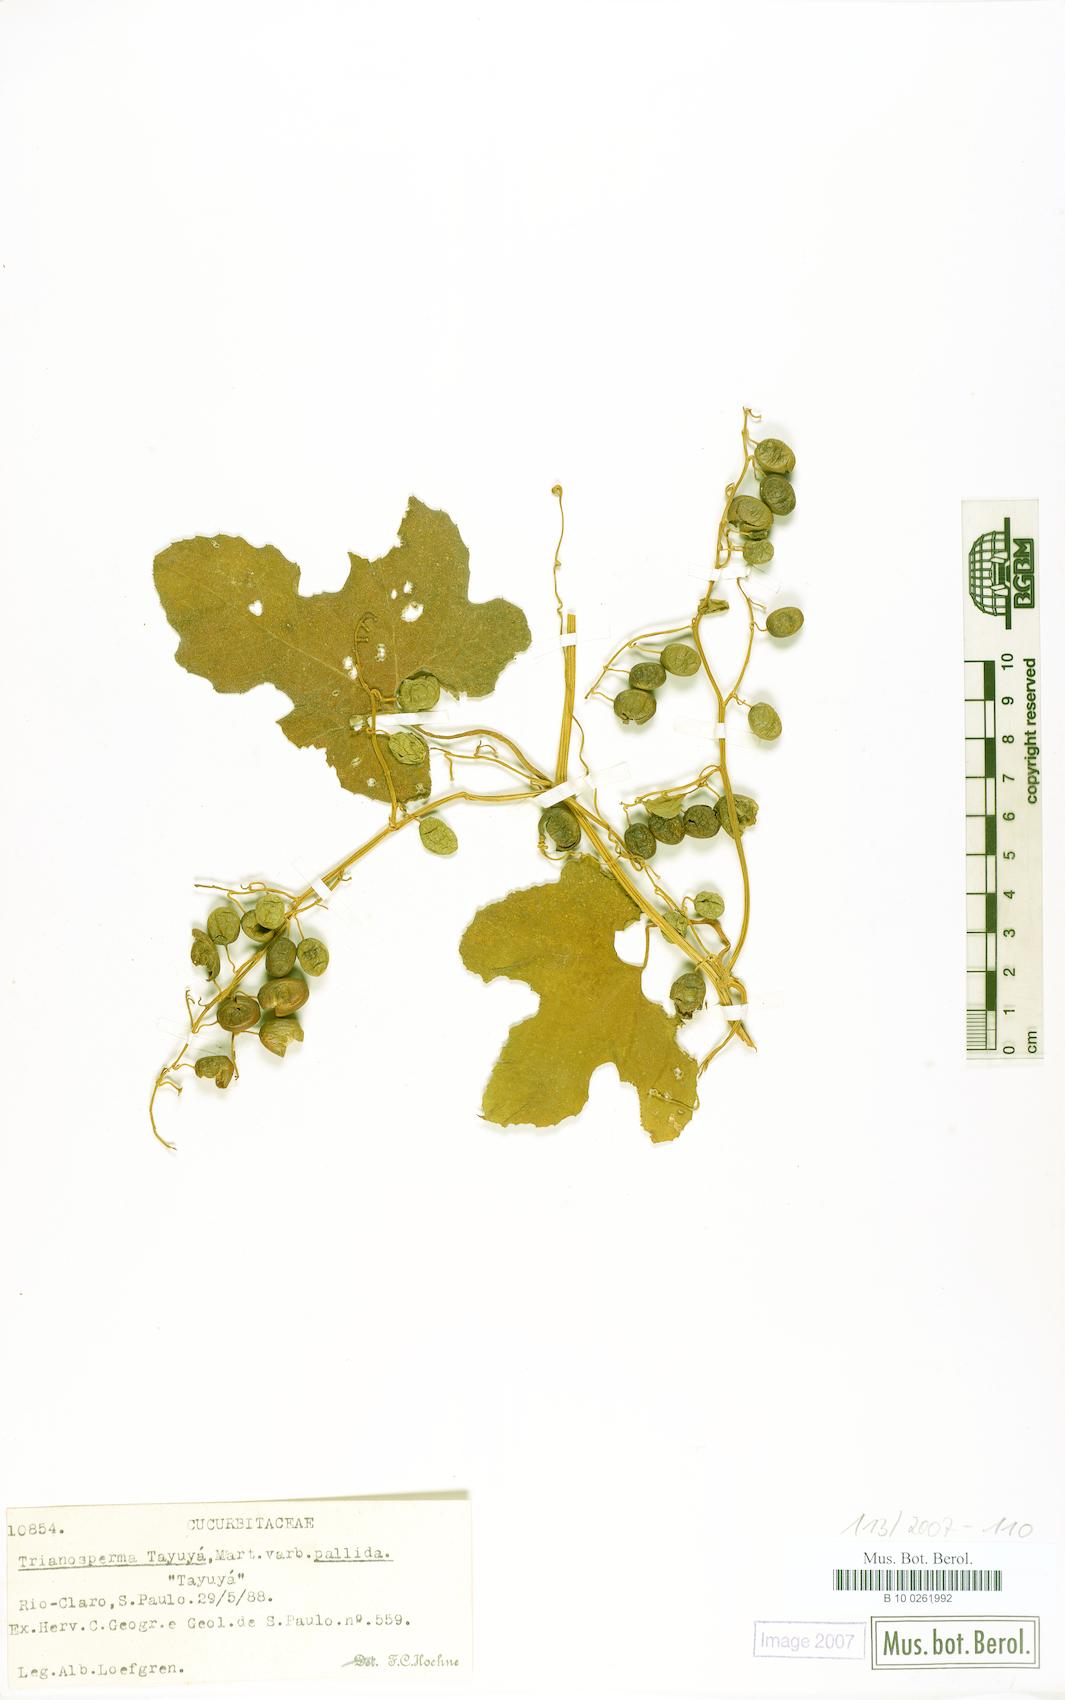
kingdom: Plantae
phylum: Tracheophyta
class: Magnoliopsida
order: Cucurbitales
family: Cucurbitaceae
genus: Cayaponia
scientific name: Cayaponia tayuya
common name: Tayuya
